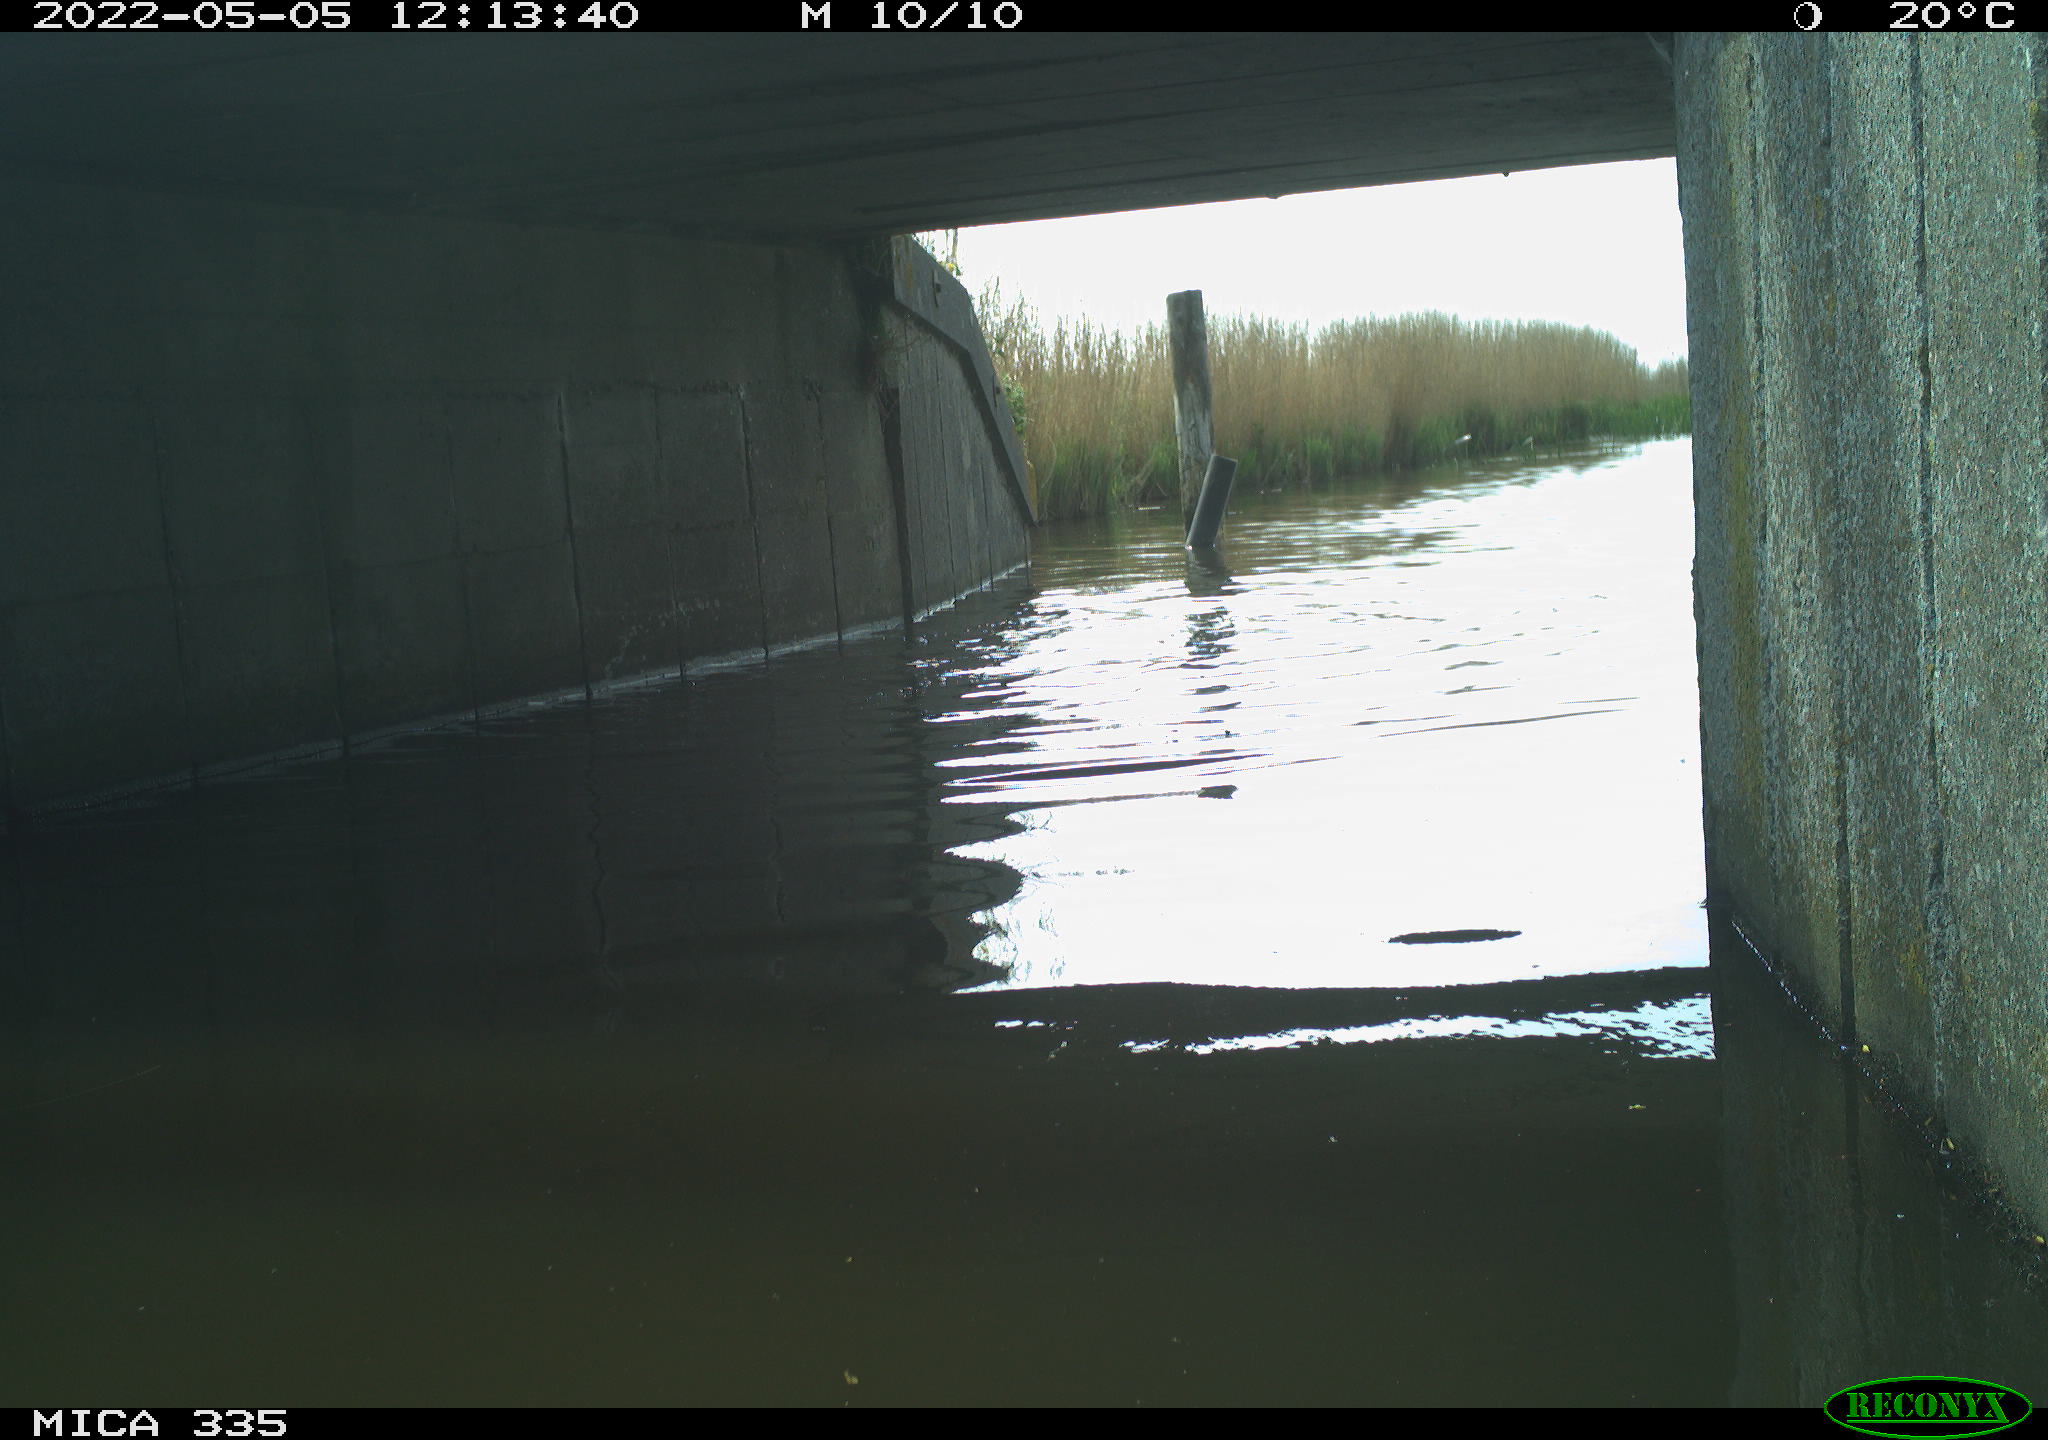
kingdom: Animalia
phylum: Chordata
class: Aves
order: Anseriformes
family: Anatidae
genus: Anas
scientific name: Anas platyrhynchos
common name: Mallard
